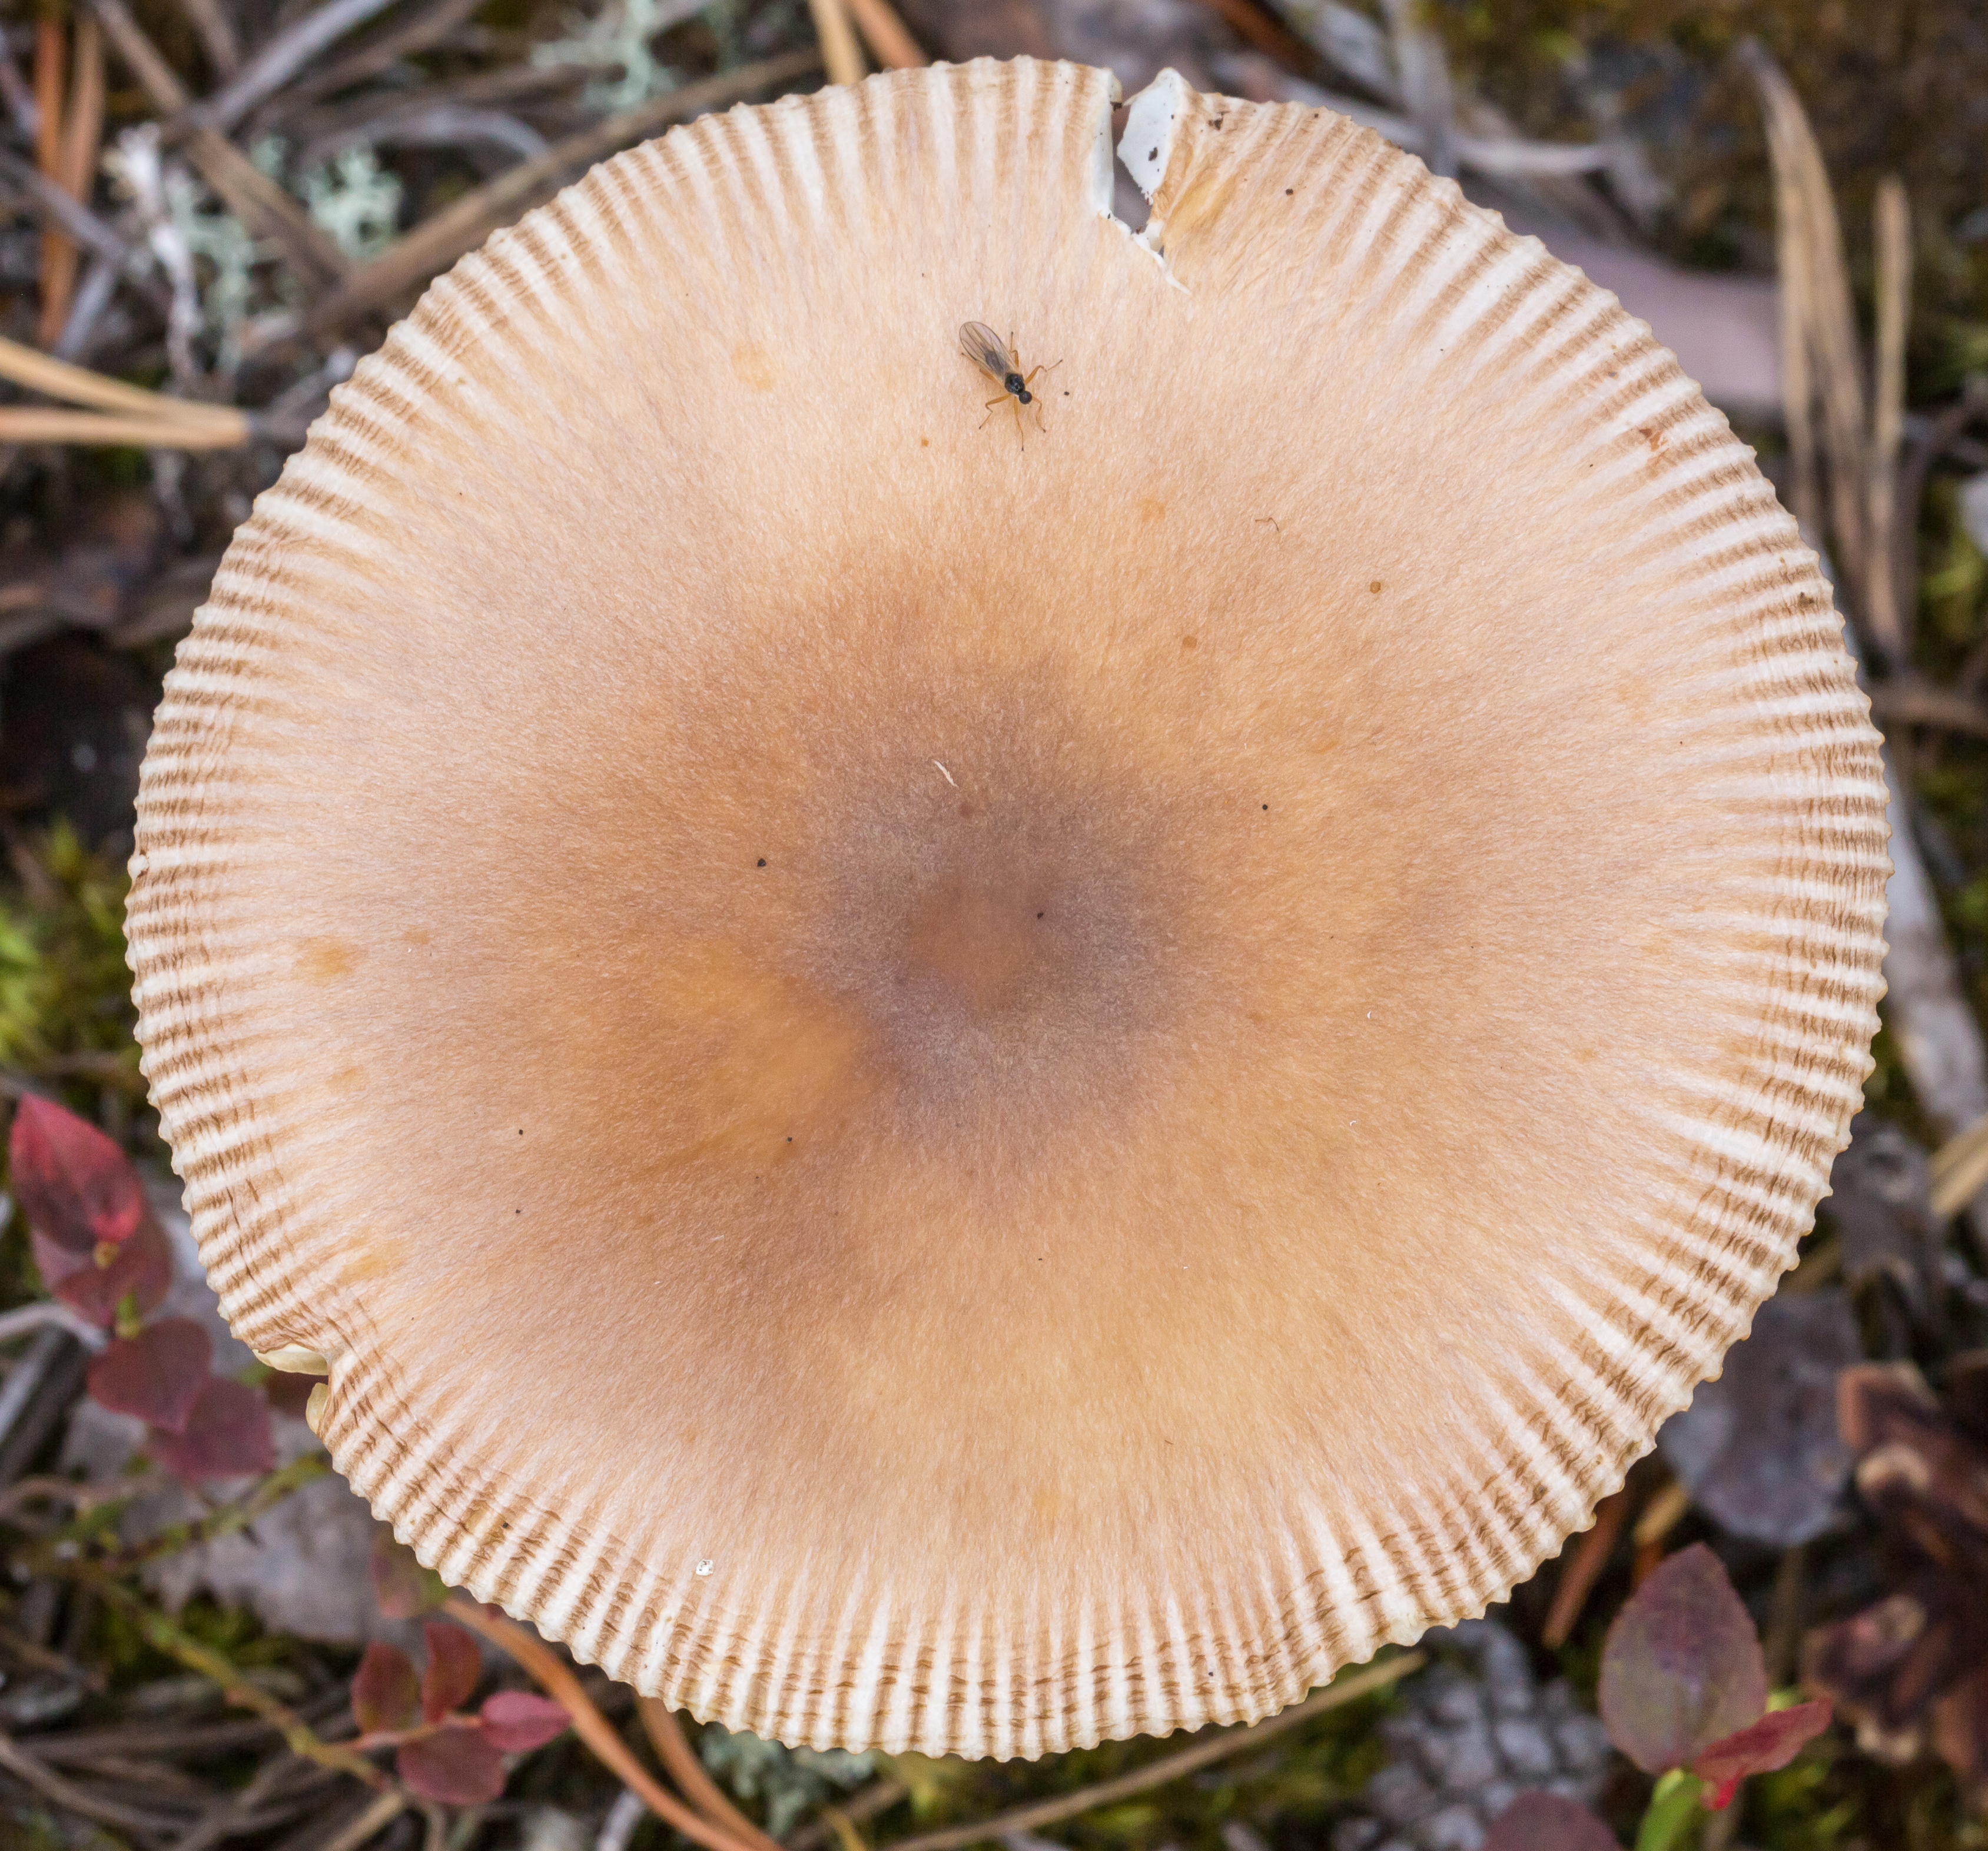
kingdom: Fungi
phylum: Basidiomycota
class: Agaricomycetes
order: Agaricales
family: Amanitaceae
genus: Amanita
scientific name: Amanita fulva
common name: Tawny grisette
